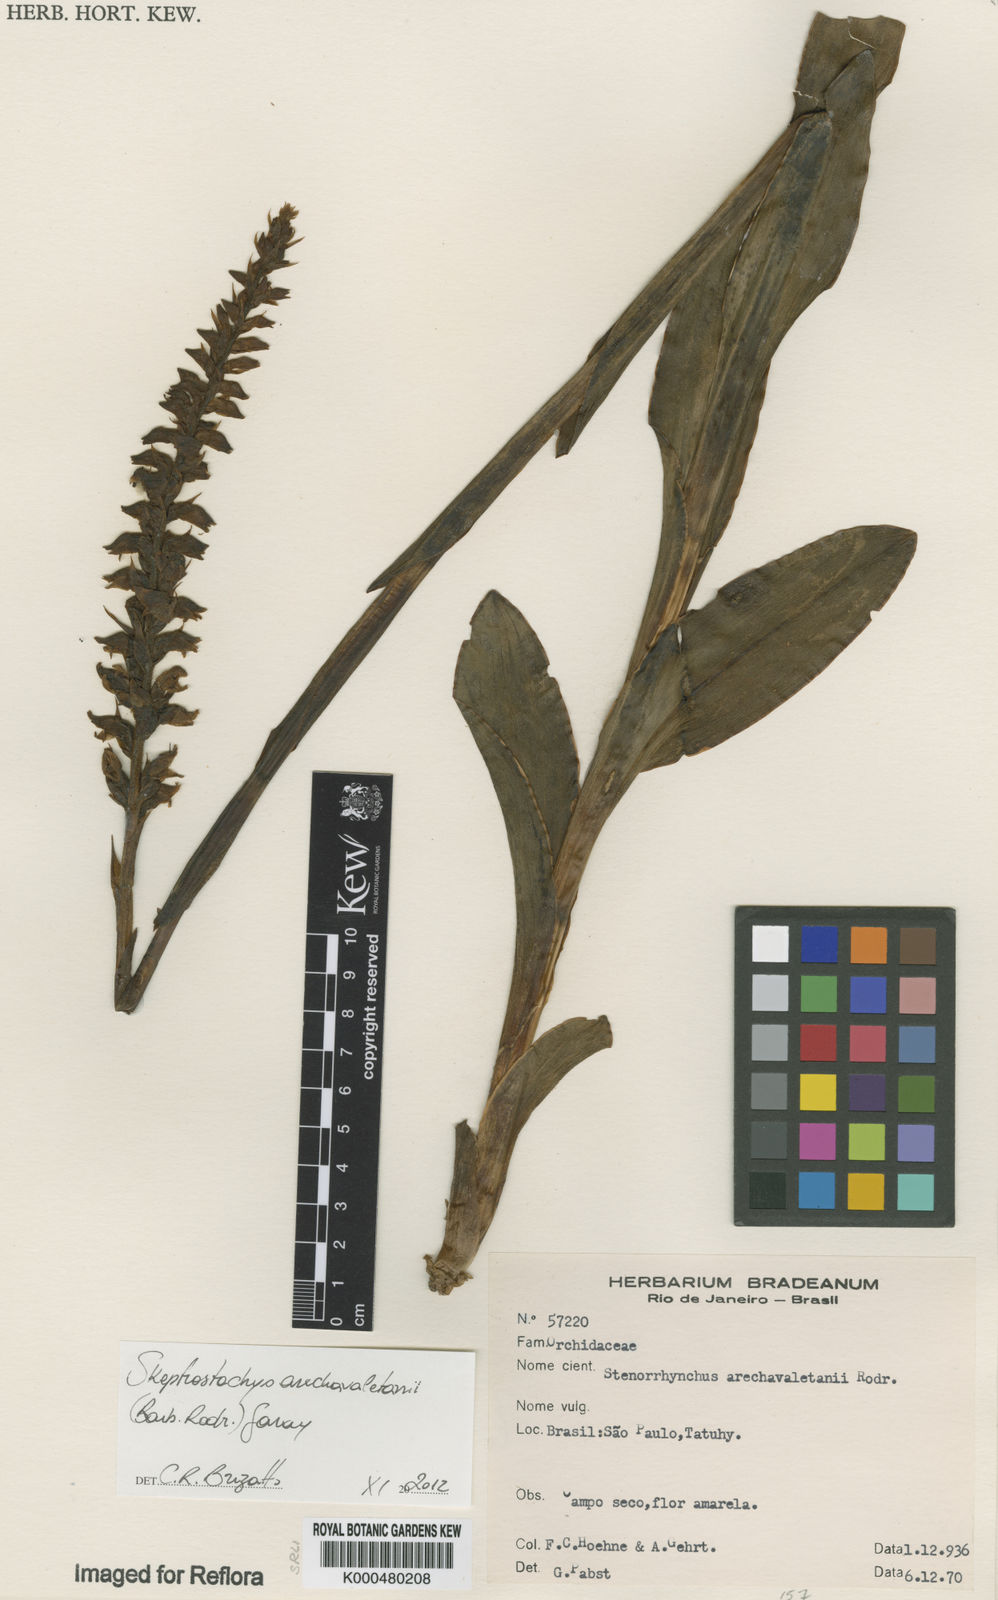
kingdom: Plantae
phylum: Tracheophyta
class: Liliopsida
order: Asparagales
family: Orchidaceae
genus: Skeptrostachys
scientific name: Skeptrostachys arechavaletanii
